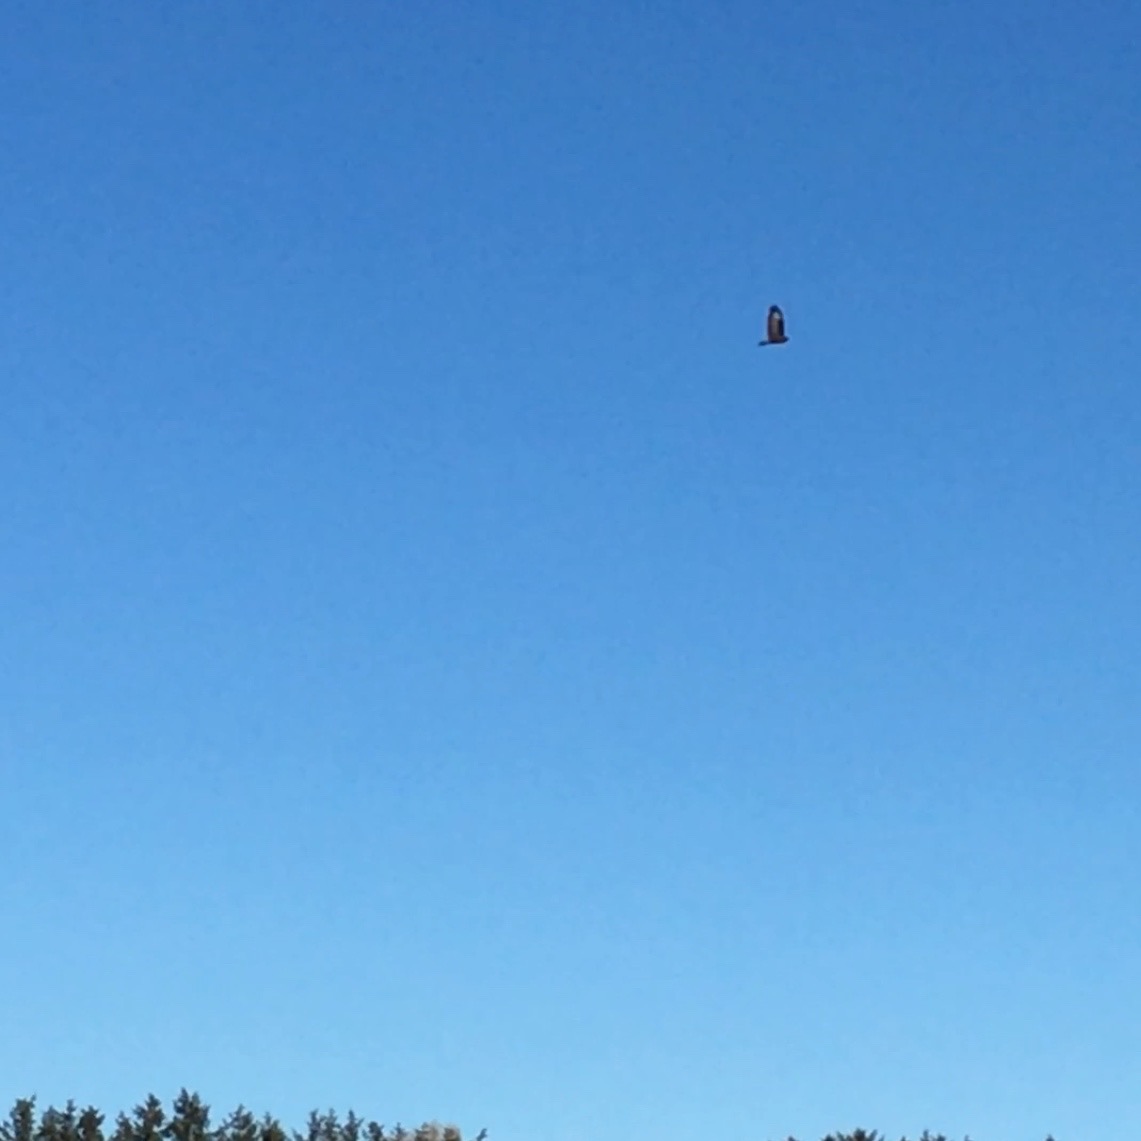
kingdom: Animalia
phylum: Chordata
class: Aves
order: Accipitriformes
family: Accipitridae
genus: Buteo
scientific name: Buteo buteo
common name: Musvåge
